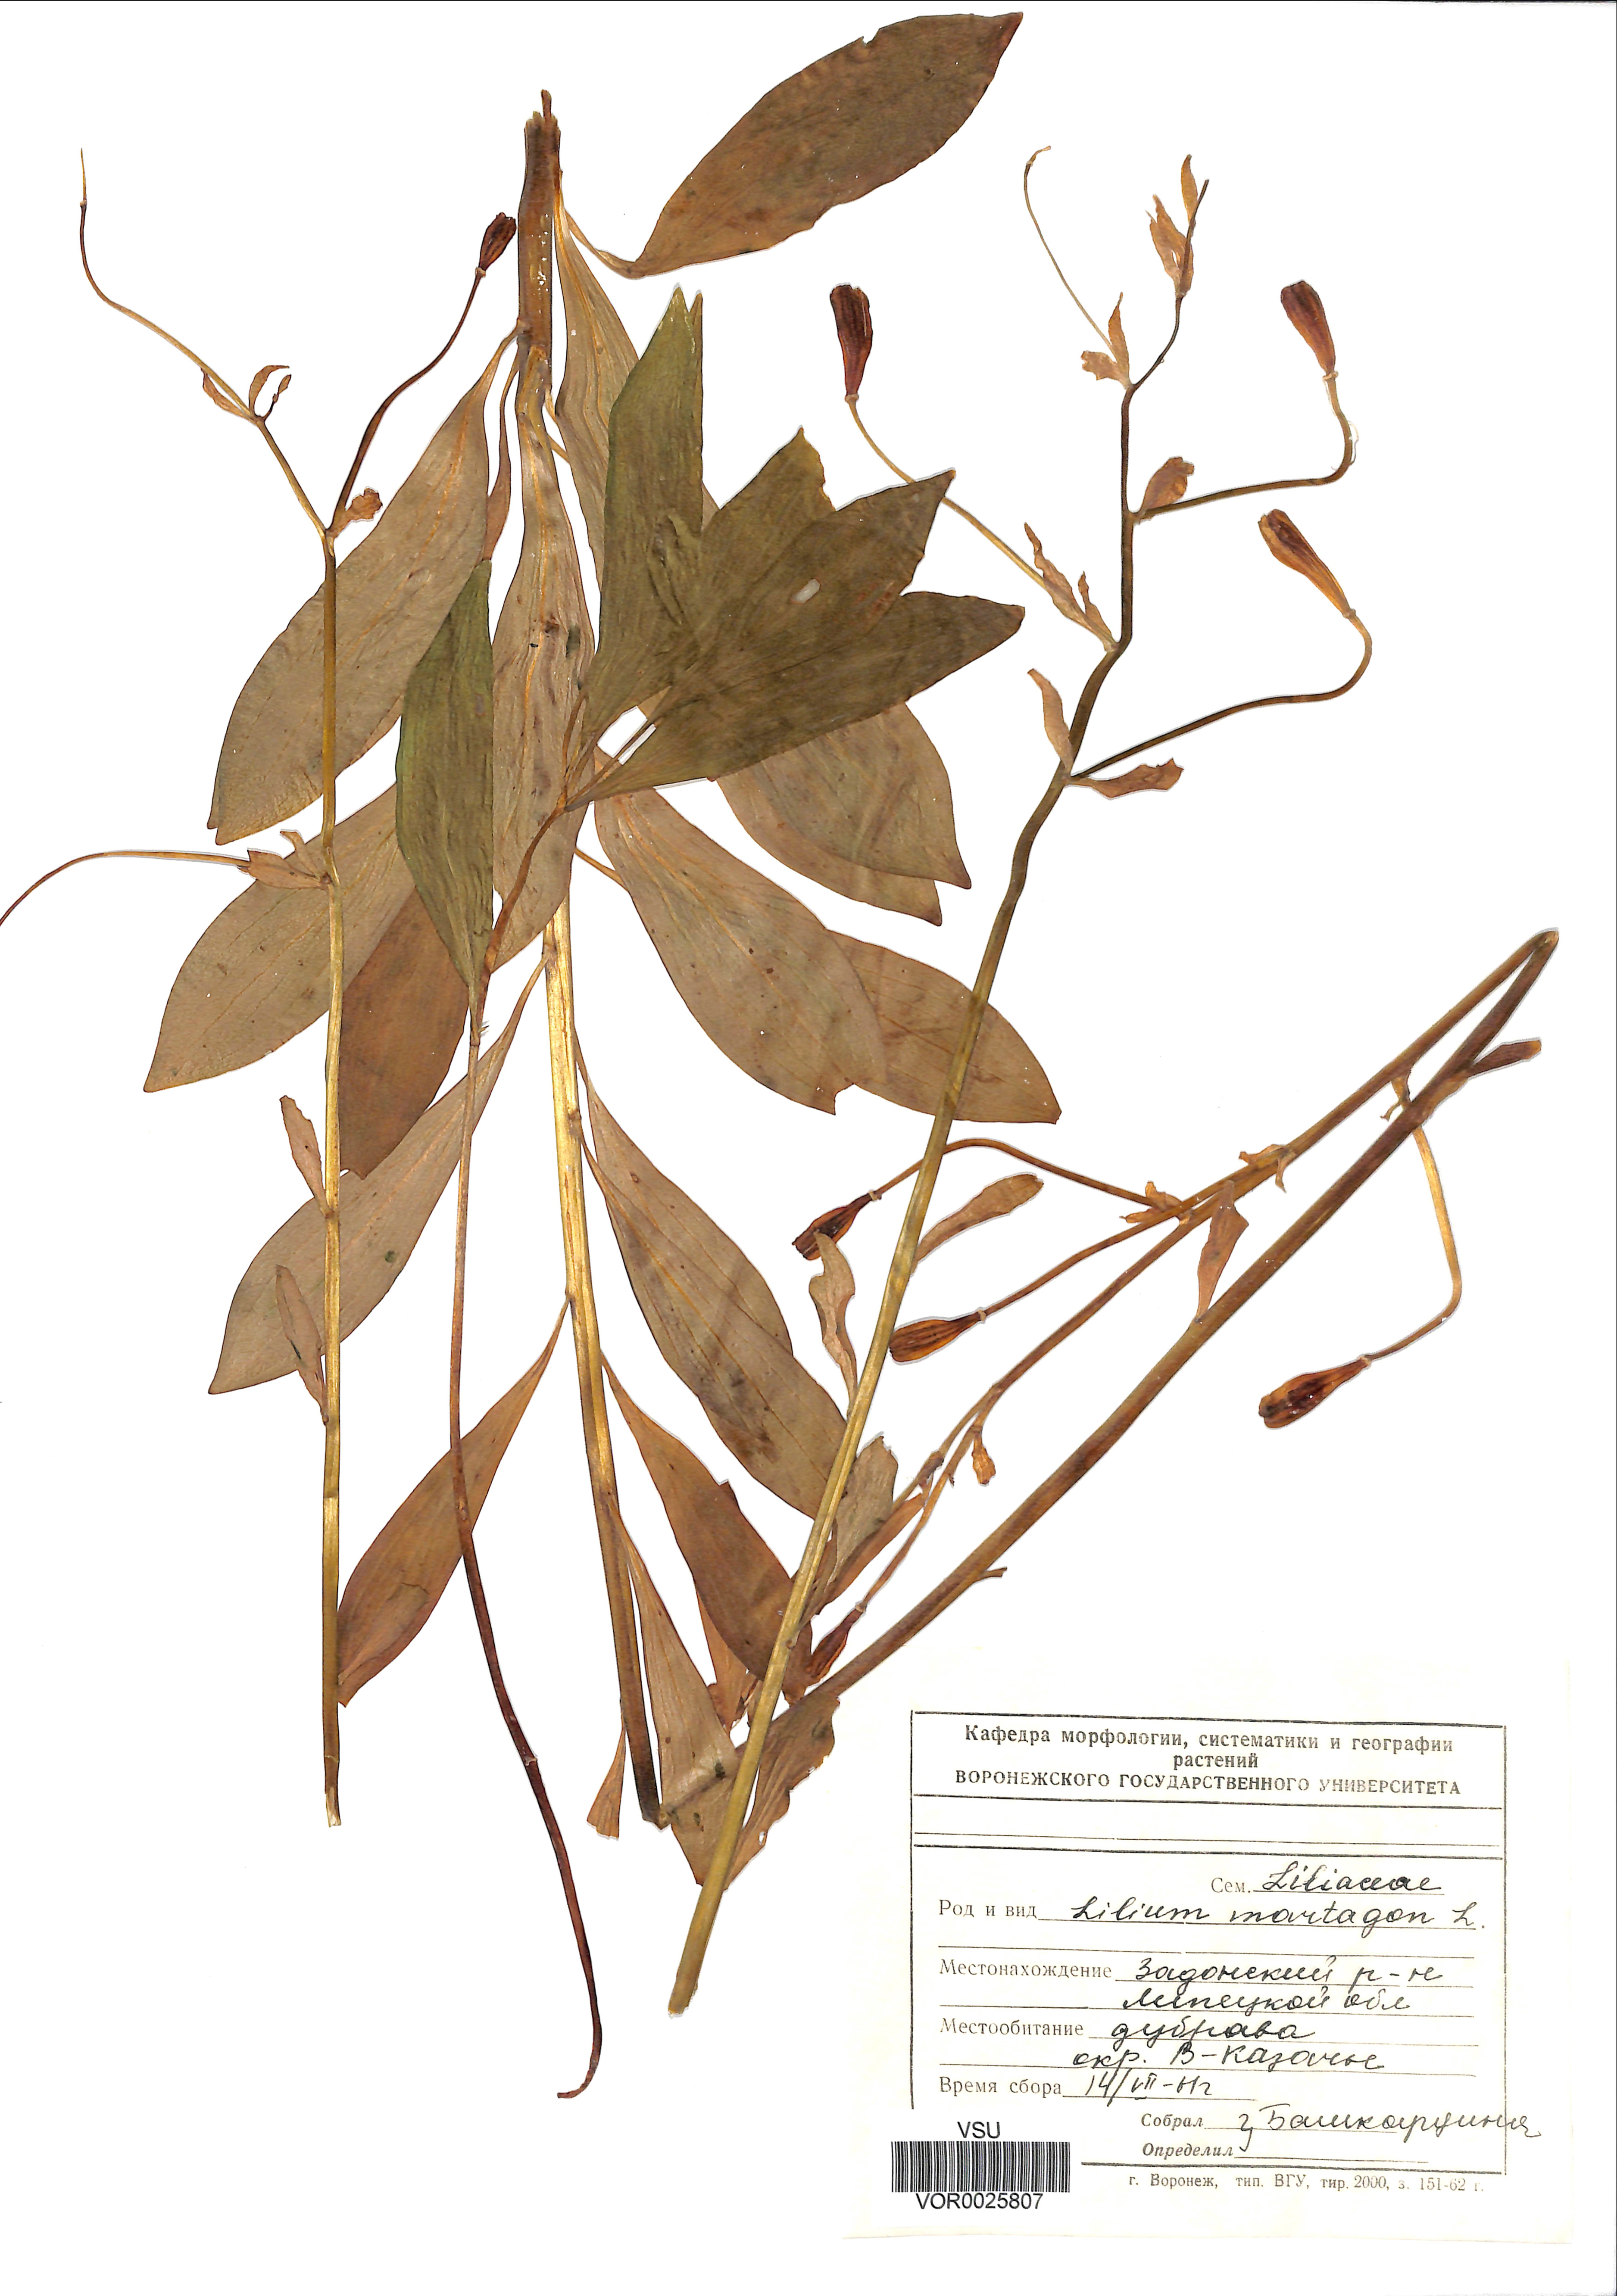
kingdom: Plantae
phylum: Tracheophyta
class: Liliopsida
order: Liliales
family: Liliaceae
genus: Lilium
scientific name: Lilium martagon
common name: Martagon lily
